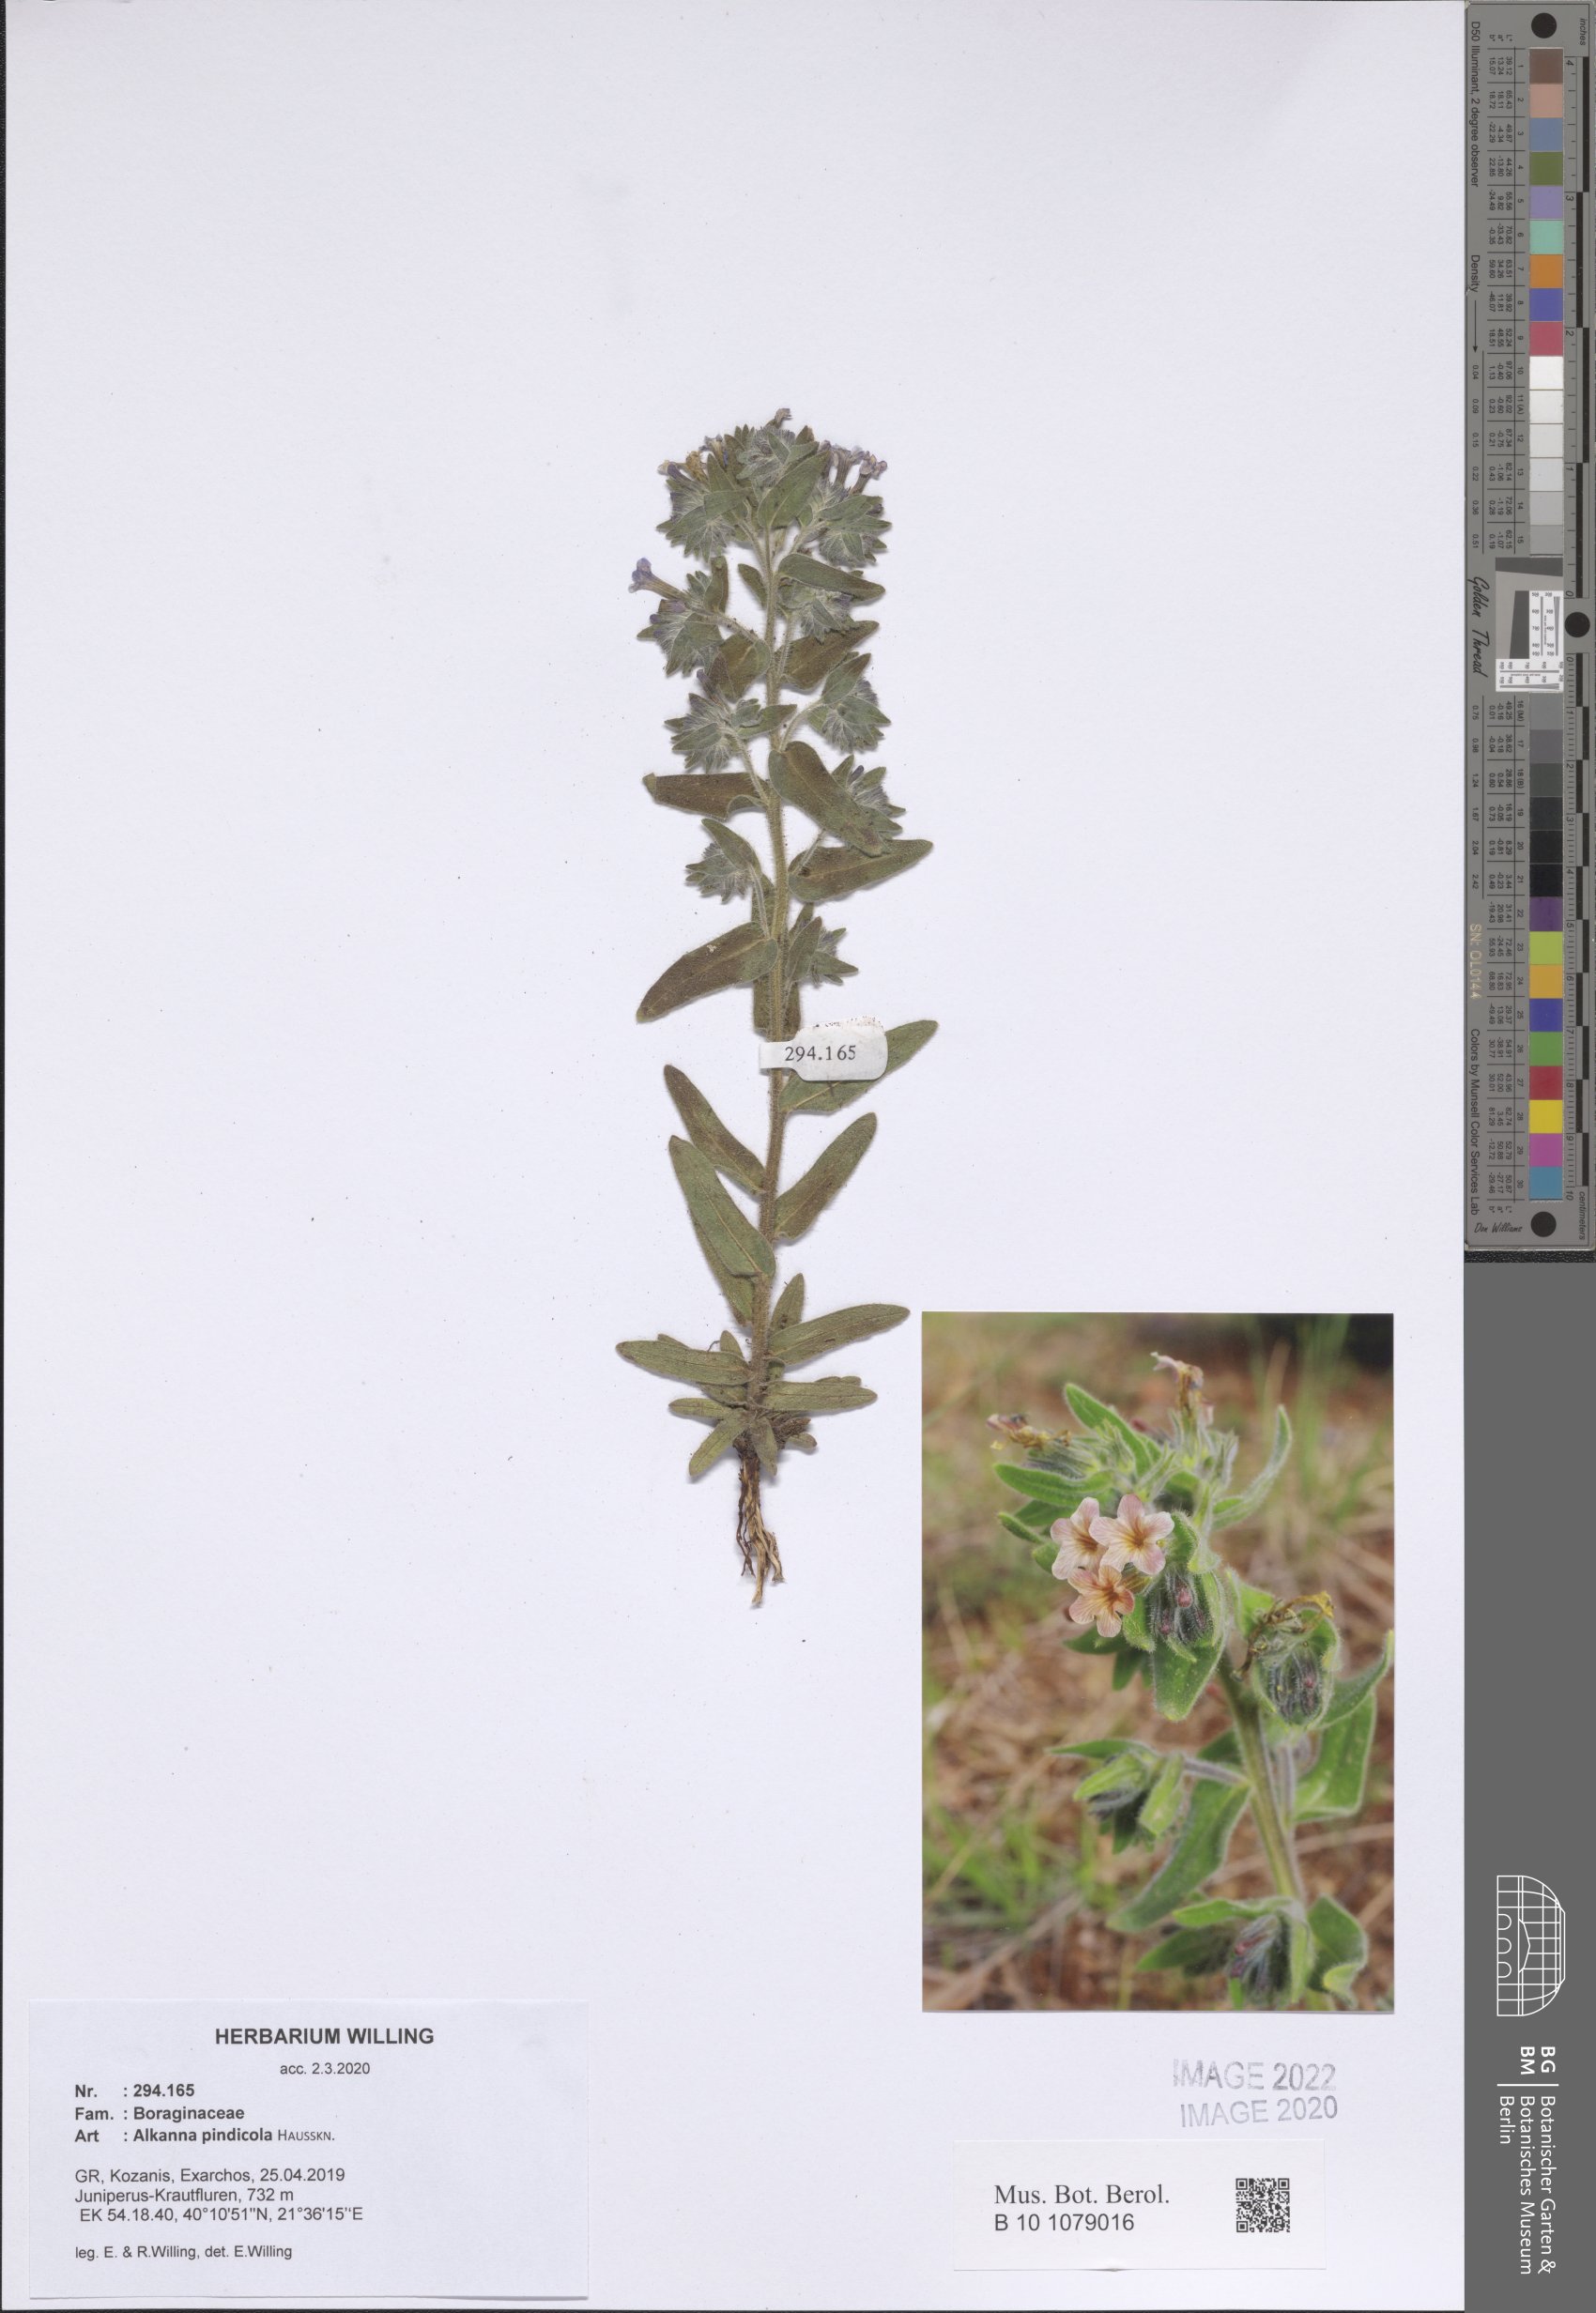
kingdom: Plantae
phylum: Tracheophyta
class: Magnoliopsida
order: Boraginales
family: Boraginaceae
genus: Alkanna
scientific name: Alkanna pindicola
